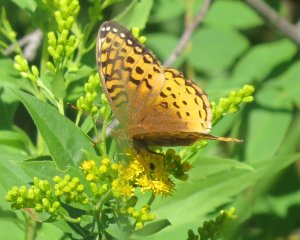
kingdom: Animalia
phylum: Arthropoda
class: Insecta
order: Lepidoptera
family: Nymphalidae
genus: Speyeria
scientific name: Speyeria cybele
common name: Great Spangled Fritillary
